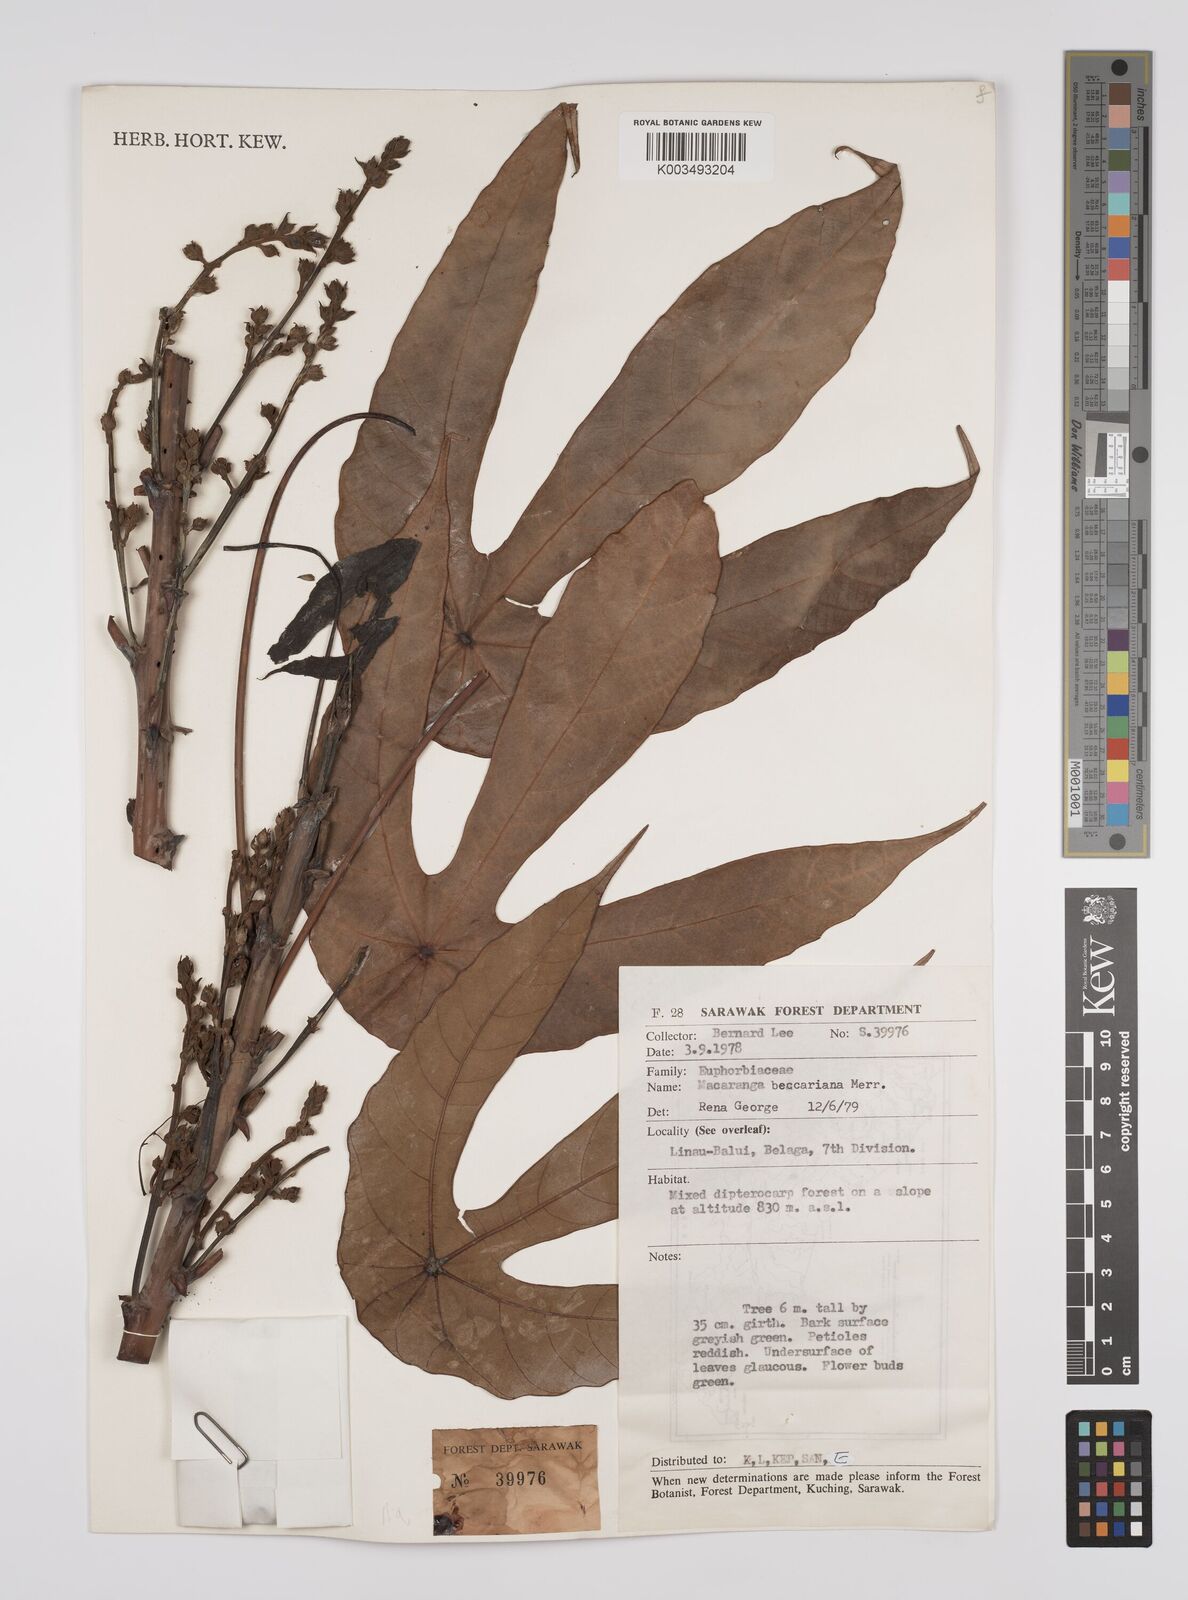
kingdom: Plantae
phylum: Tracheophyta
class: Magnoliopsida
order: Malpighiales
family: Euphorbiaceae
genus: Macaranga
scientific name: Macaranga beccariana
